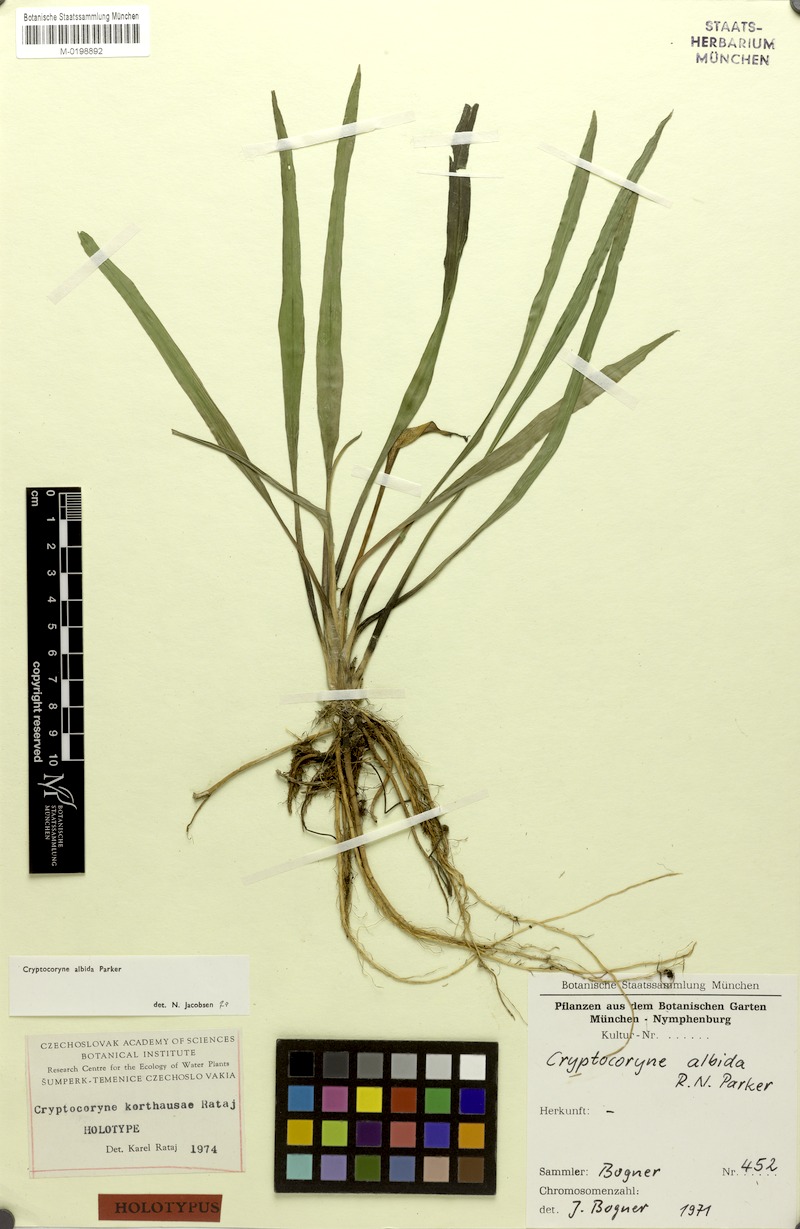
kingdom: Plantae
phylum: Tracheophyta
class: Liliopsida
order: Alismatales
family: Araceae
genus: Cryptocoryne
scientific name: Cryptocoryne albida
